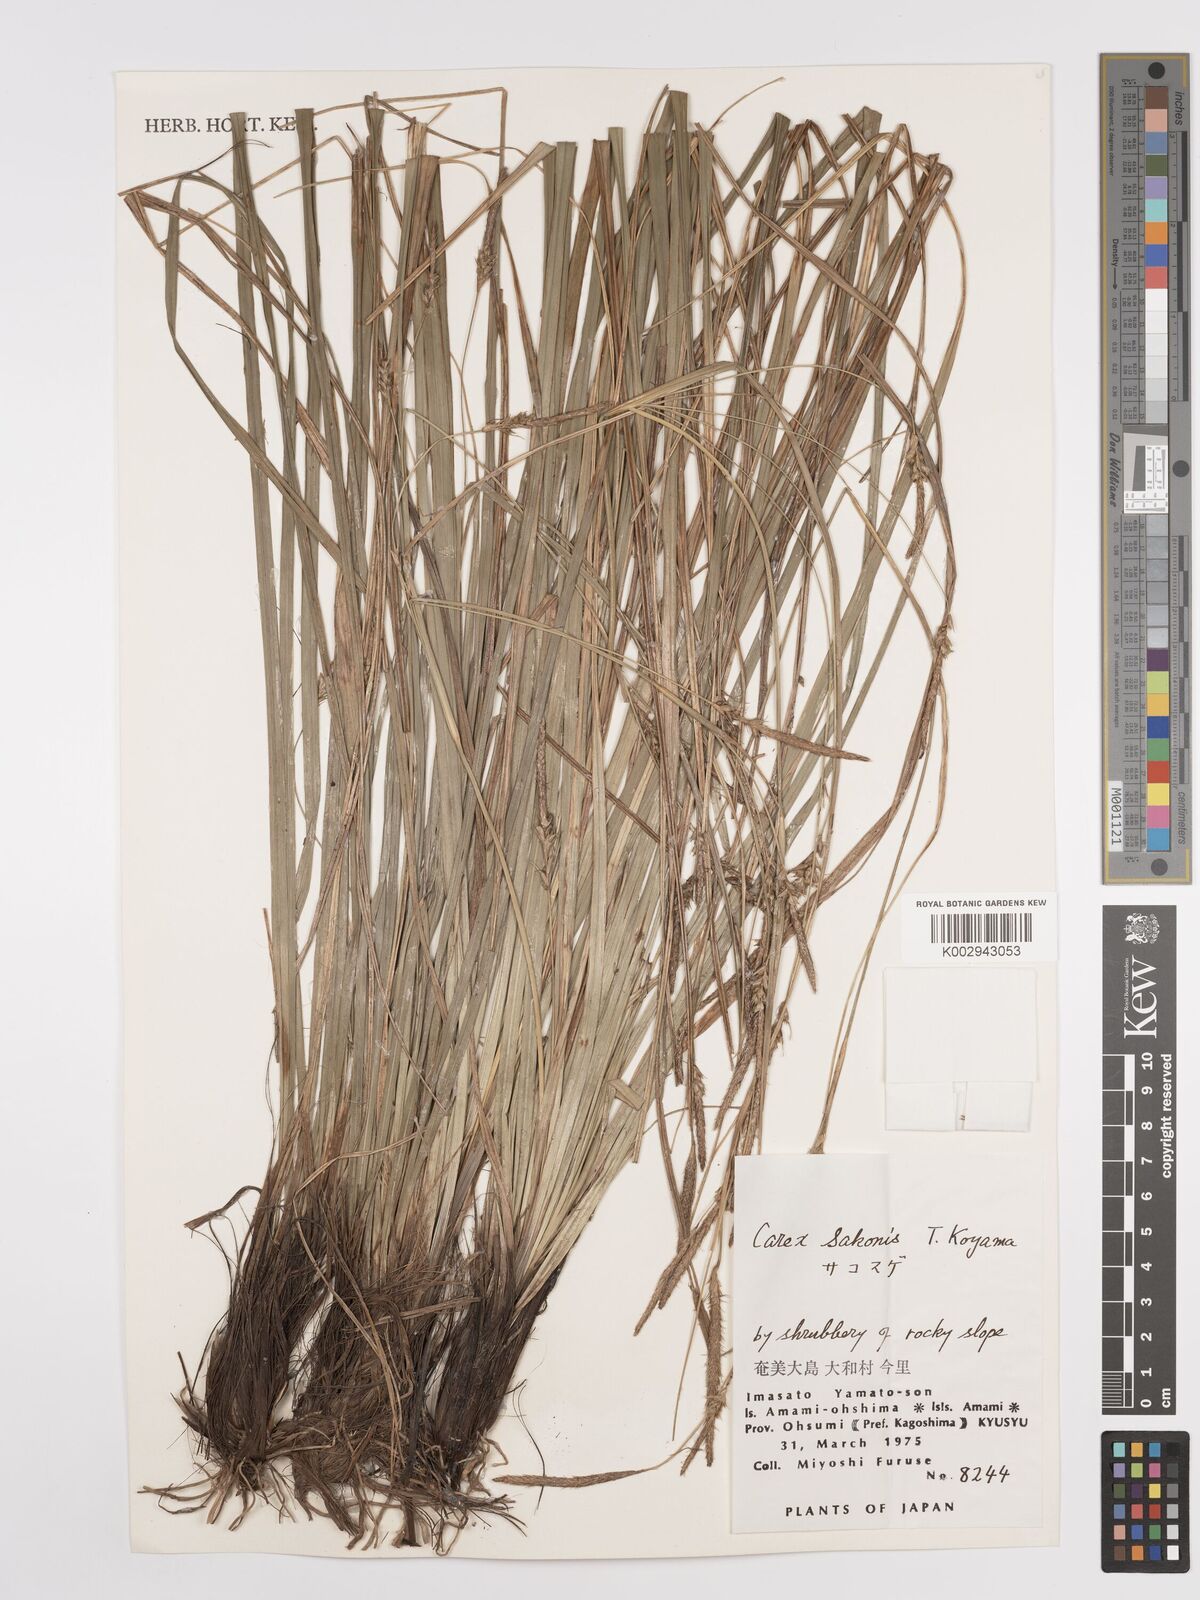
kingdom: Plantae
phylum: Tracheophyta
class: Liliopsida
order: Poales
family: Cyperaceae
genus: Carex
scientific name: Carex wahuensis
